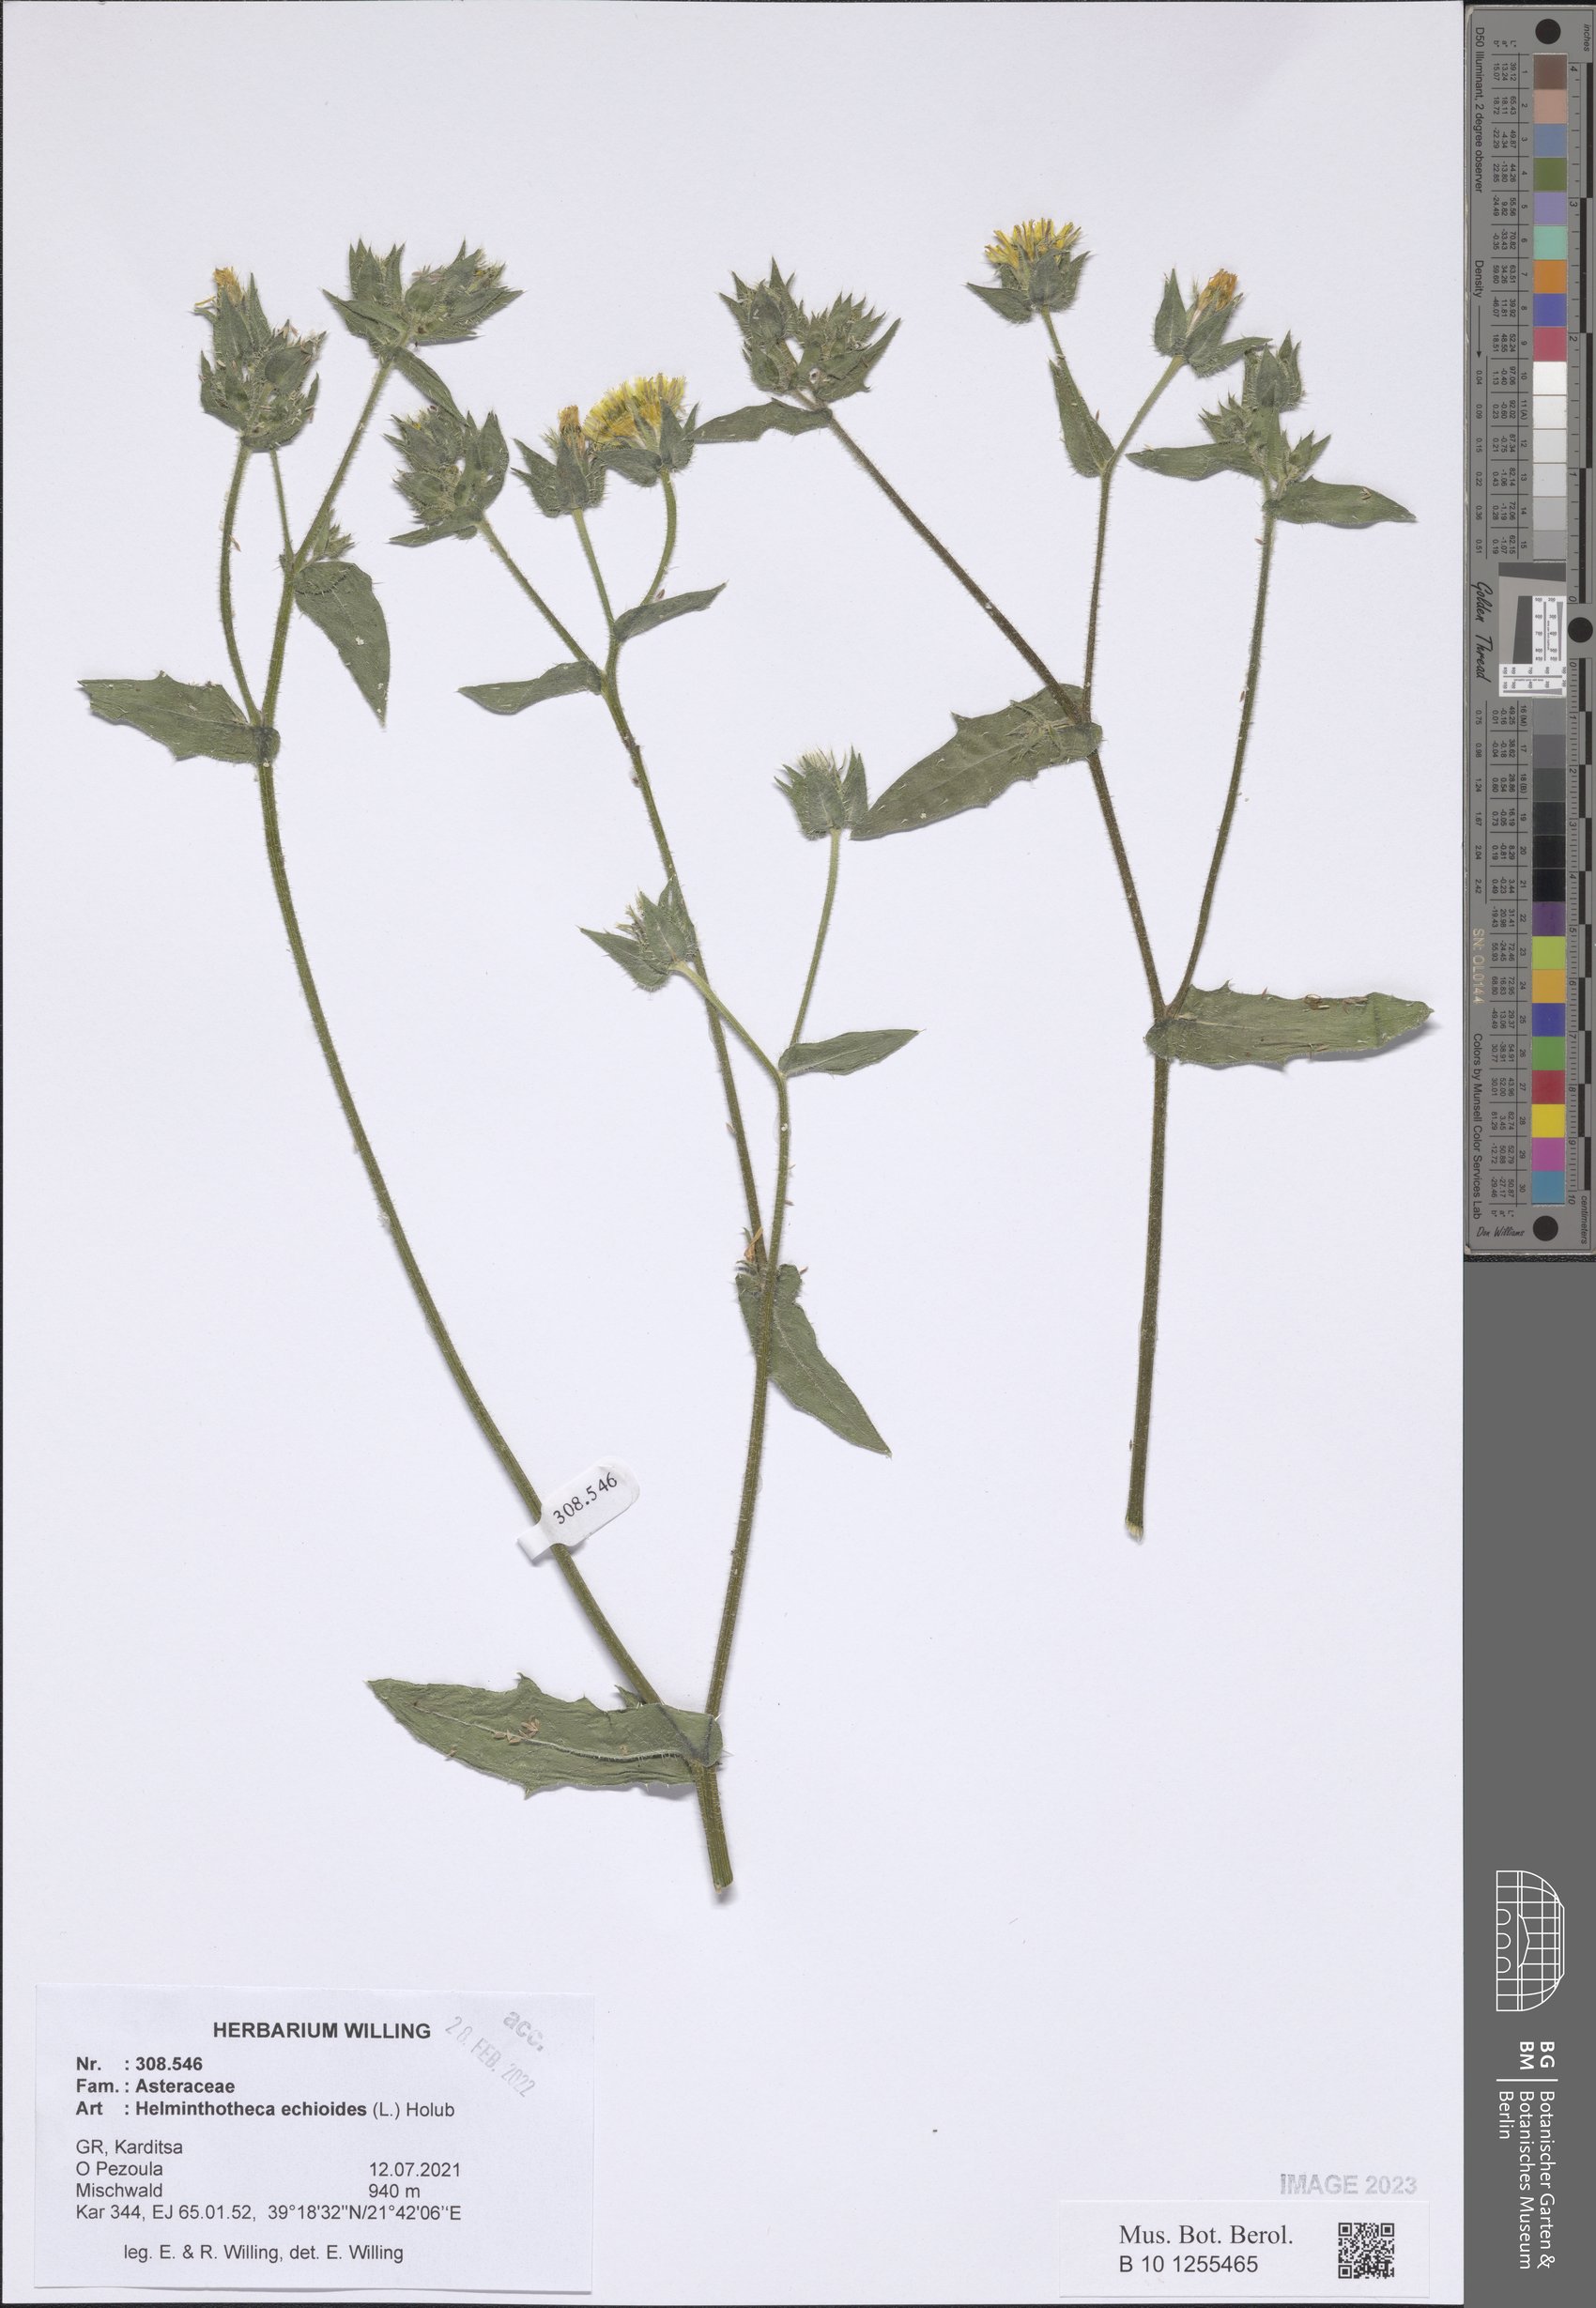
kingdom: Plantae
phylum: Tracheophyta
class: Magnoliopsida
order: Asterales
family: Asteraceae
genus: Helminthotheca
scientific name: Helminthotheca echioides
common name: Ox-tongue
